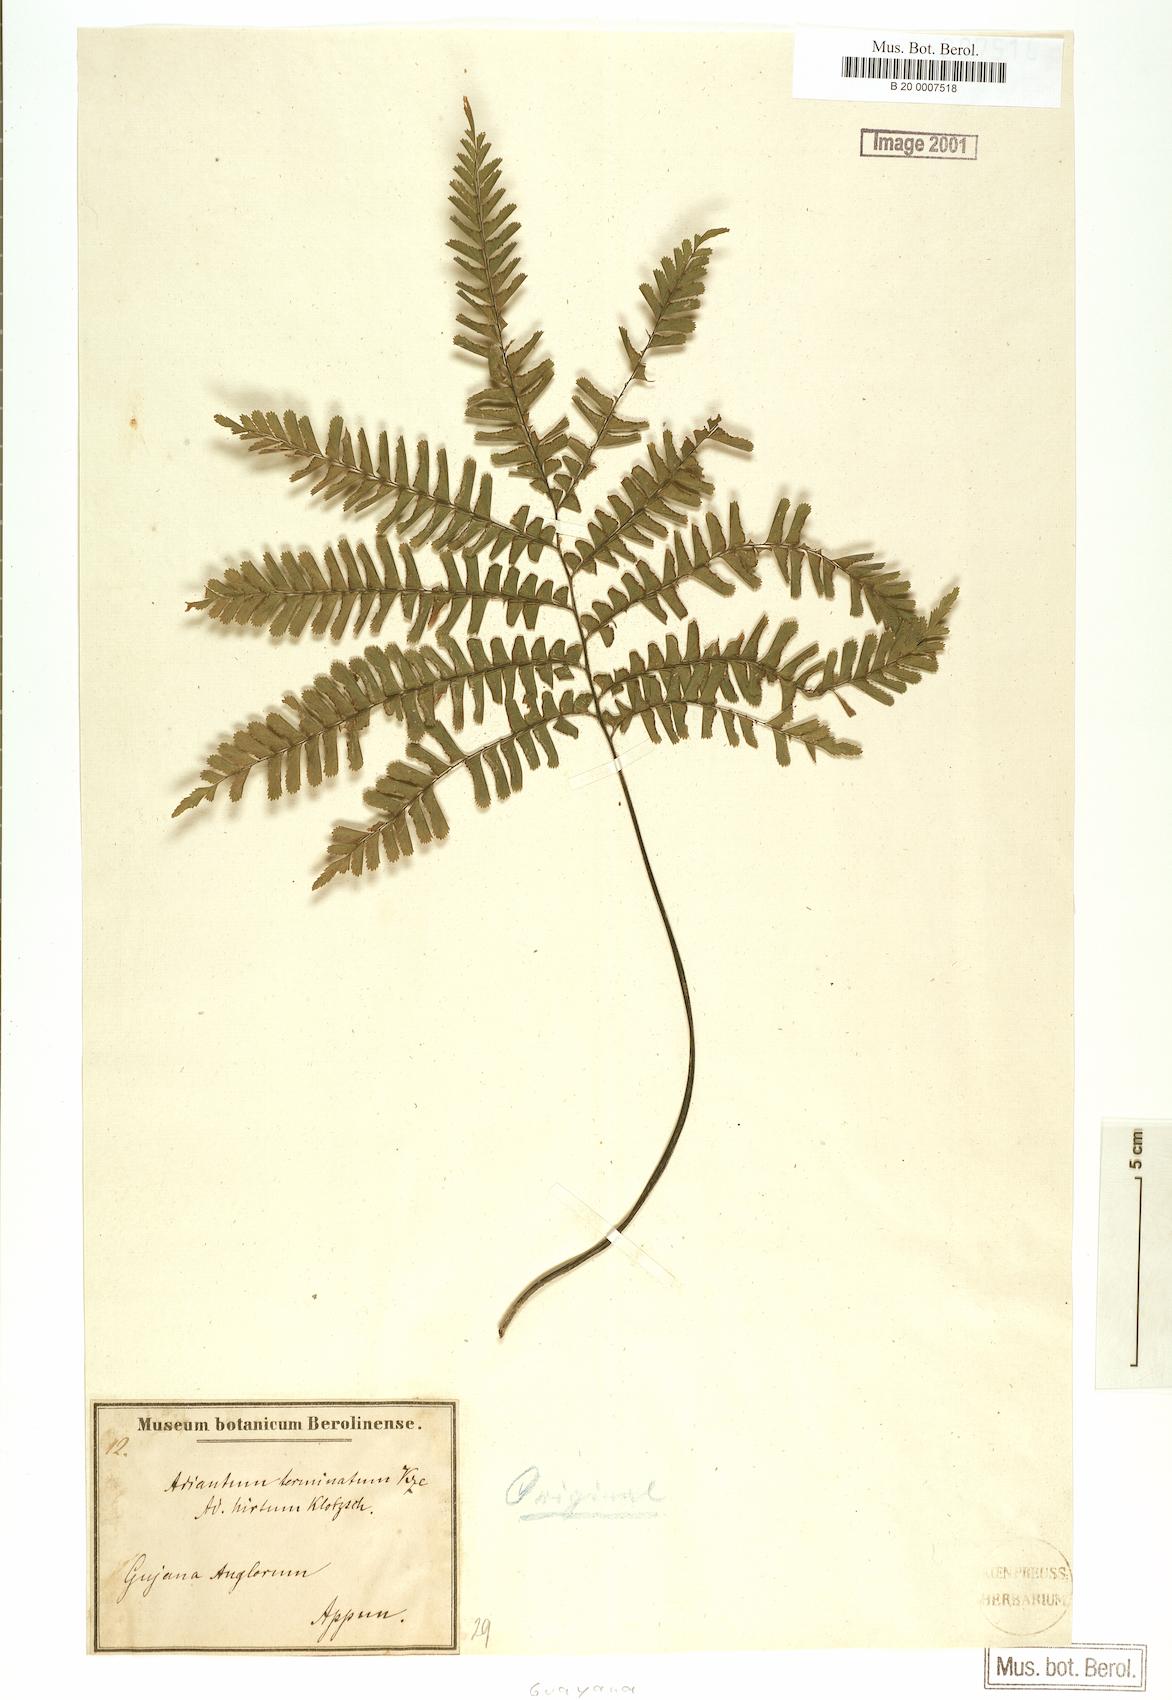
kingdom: Plantae
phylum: Tracheophyta
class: Polypodiopsida
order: Polypodiales
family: Pteridaceae
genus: Adiantum
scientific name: Adiantum terminatum
